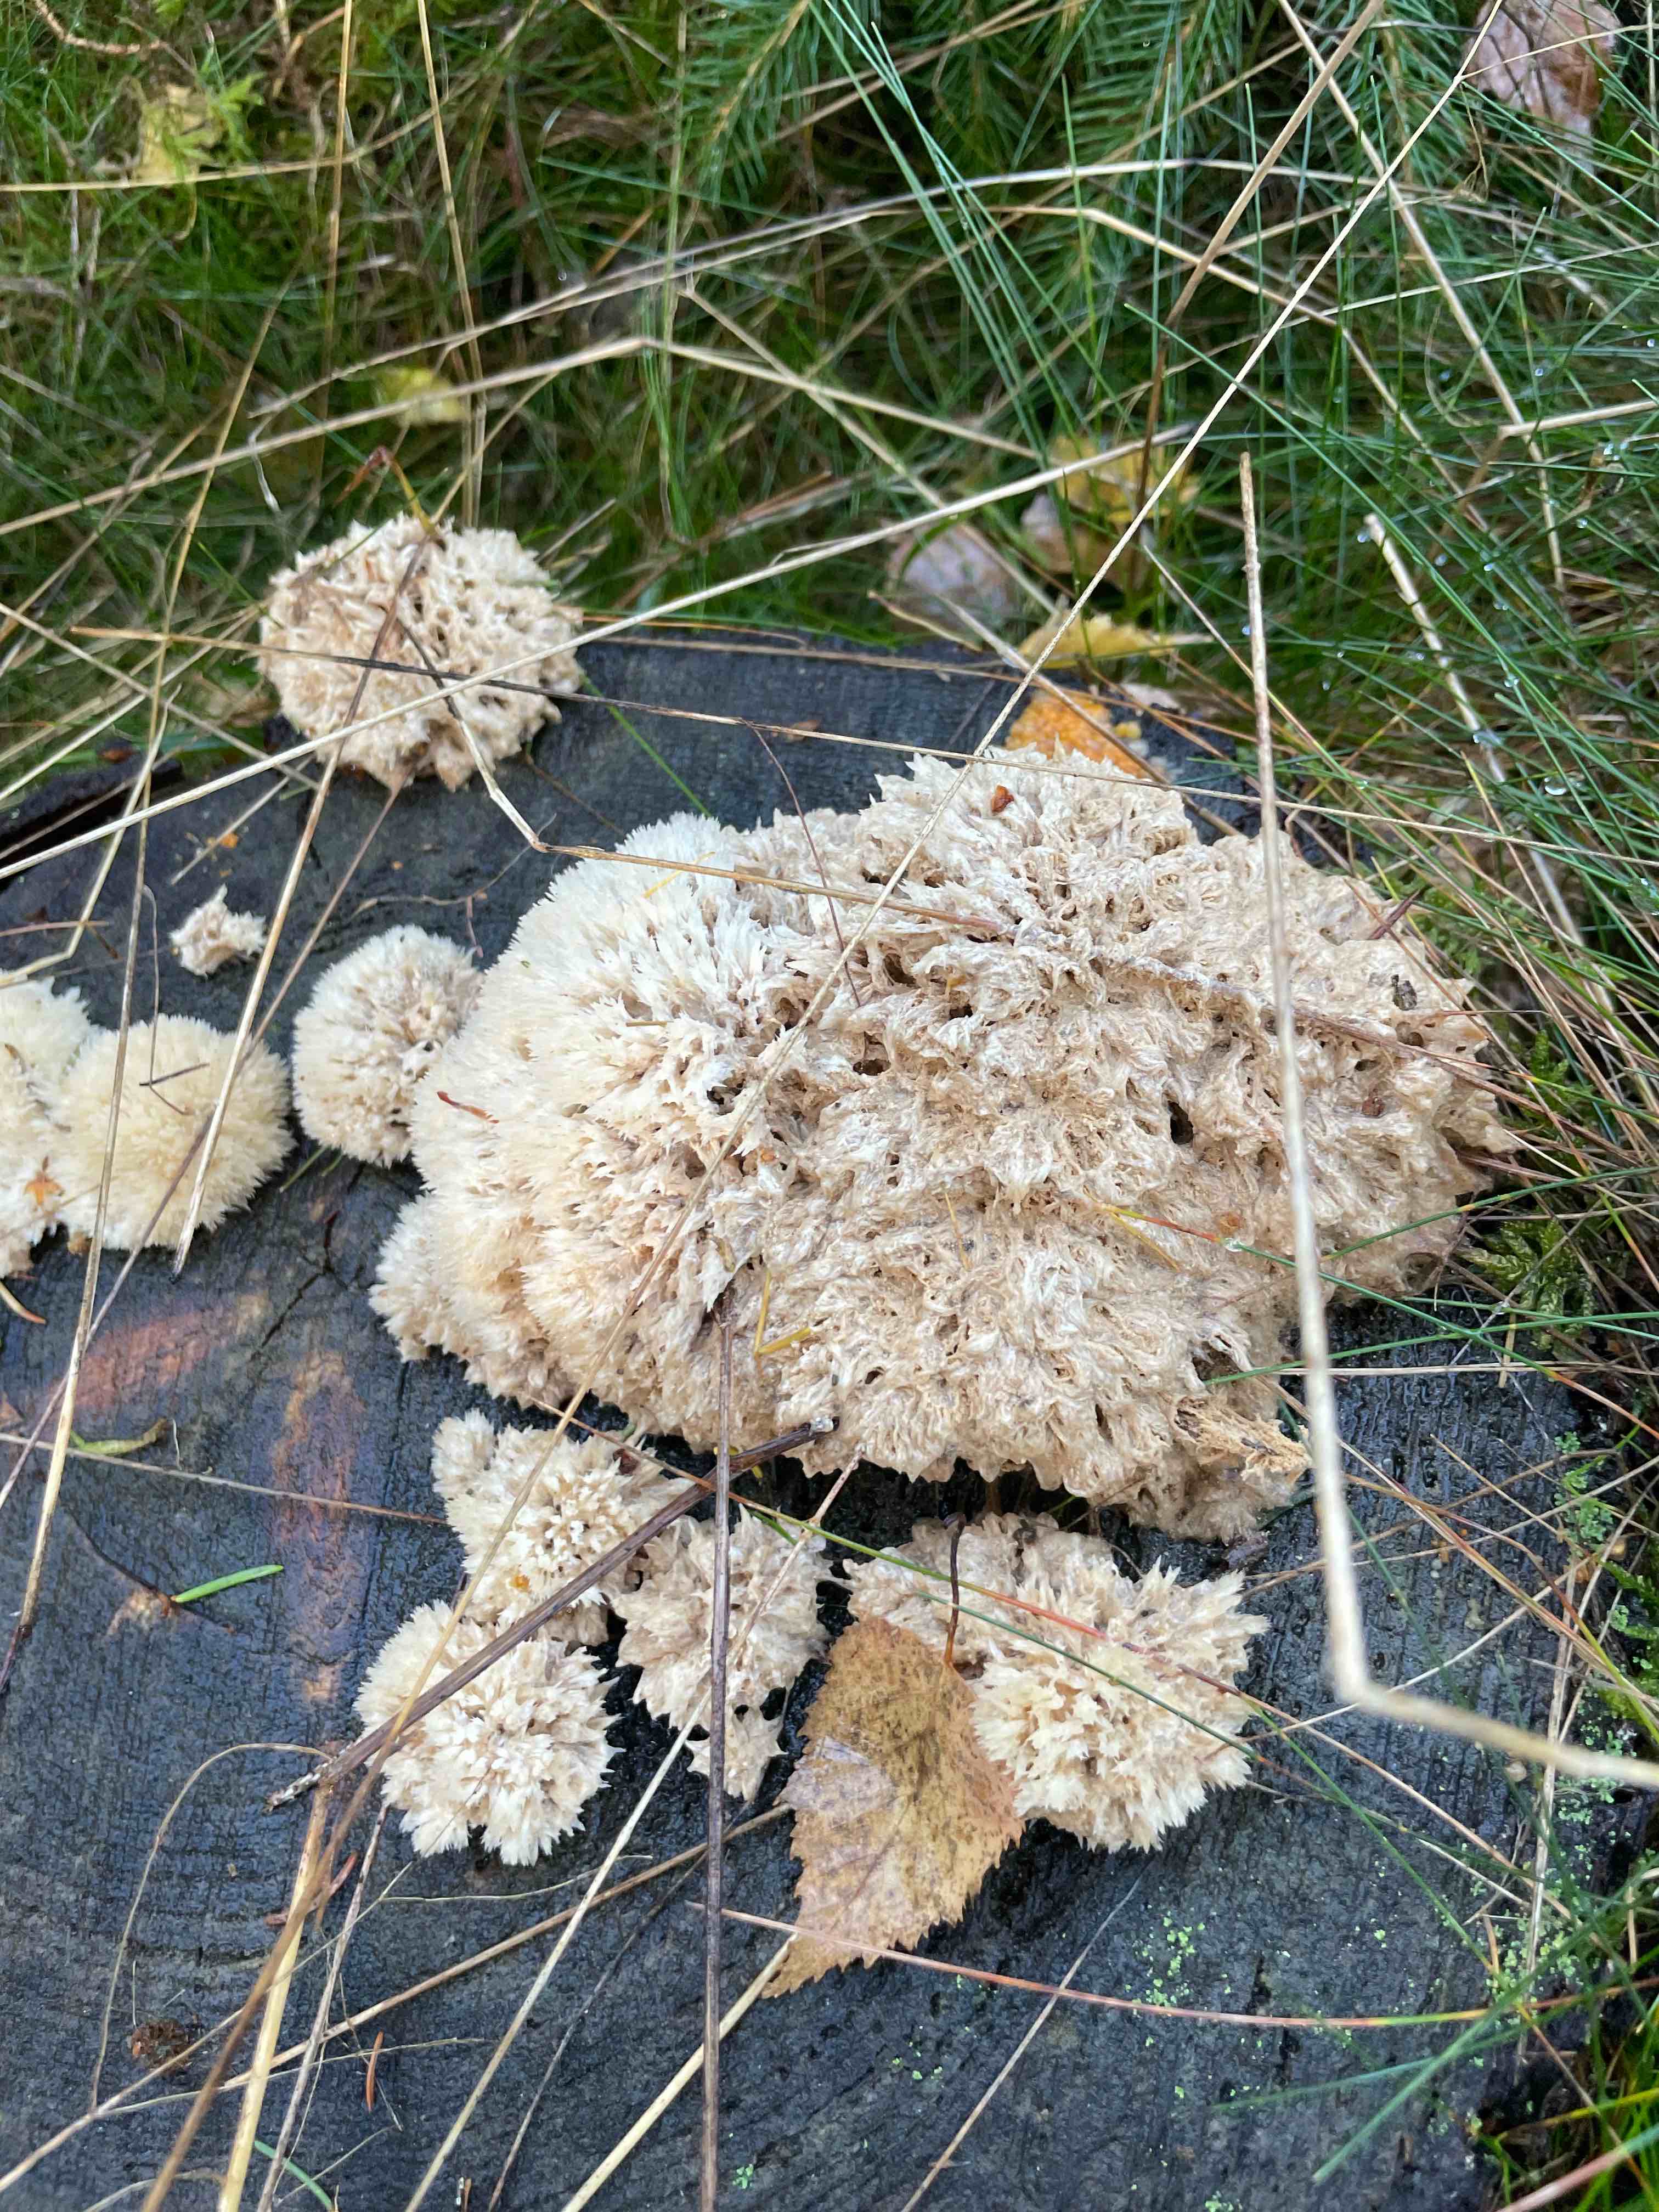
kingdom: Fungi
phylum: Basidiomycota
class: Agaricomycetes
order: Polyporales
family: Dacryobolaceae
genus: Postia
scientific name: Postia ptychogaster
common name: støvende kødporesvamp
